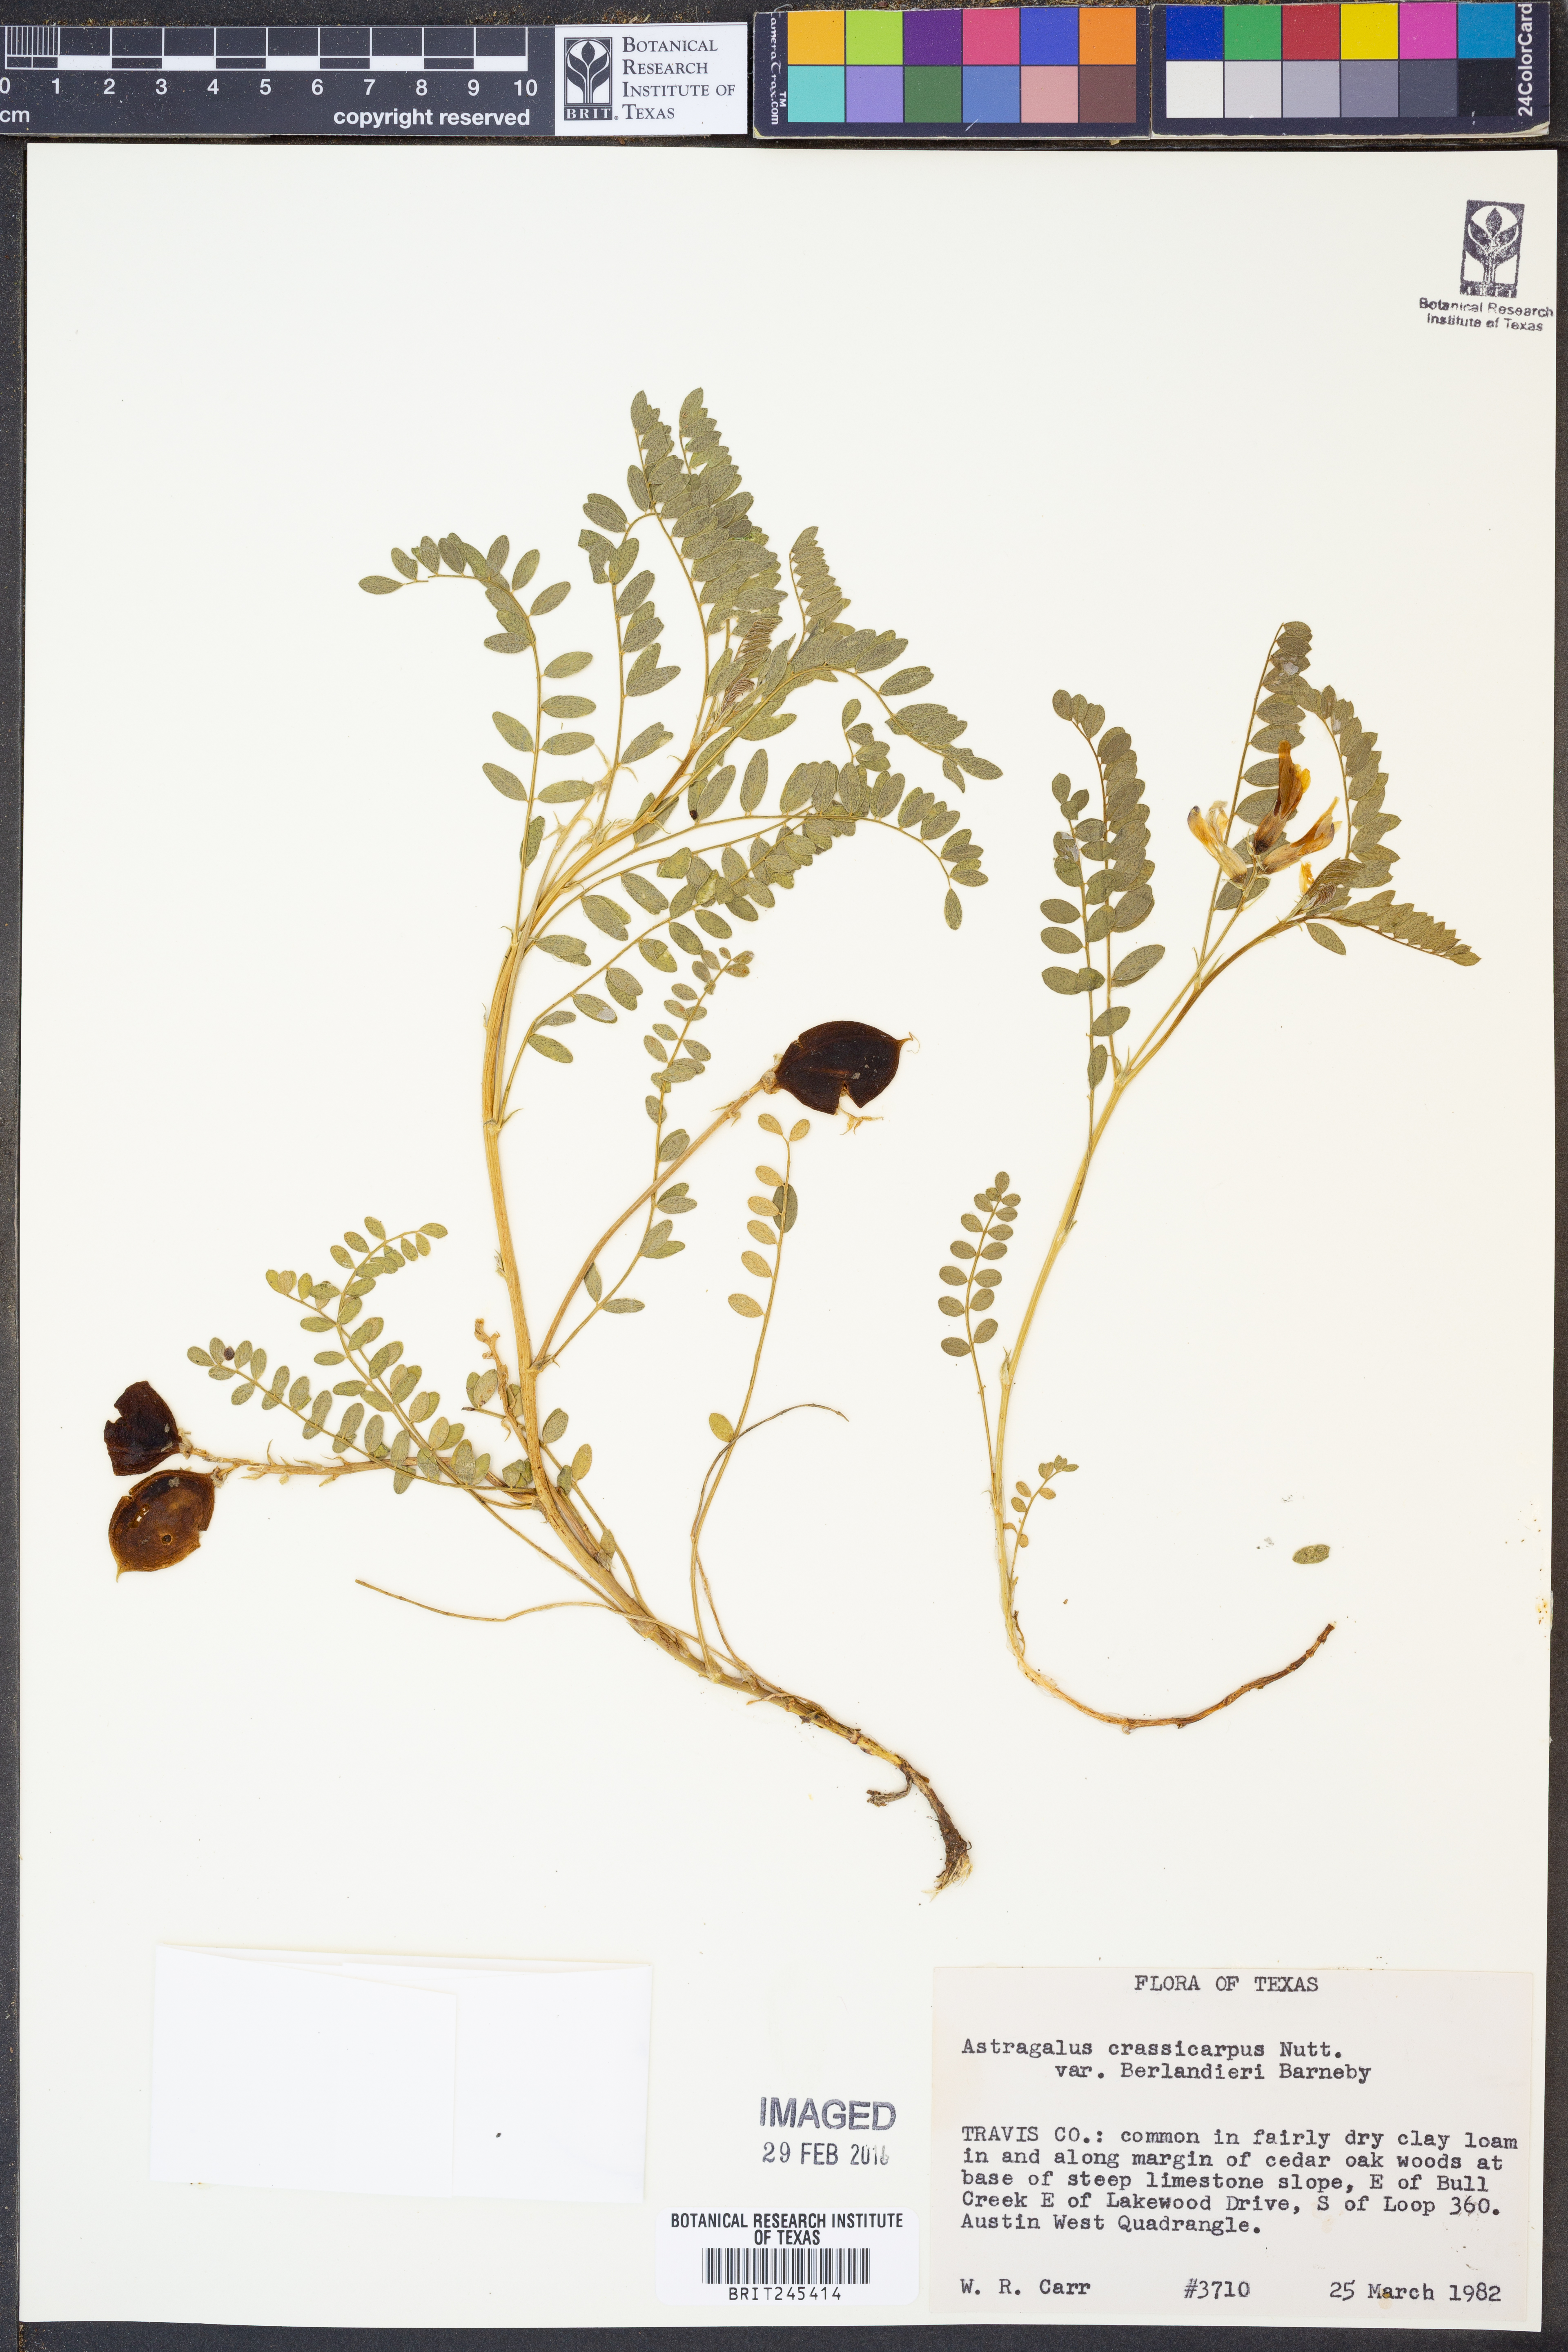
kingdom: Plantae
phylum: Tracheophyta
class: Magnoliopsida
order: Fabales
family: Fabaceae
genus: Astragalus
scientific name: Astragalus crassicarpus
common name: Ground-plum milk-vetch
